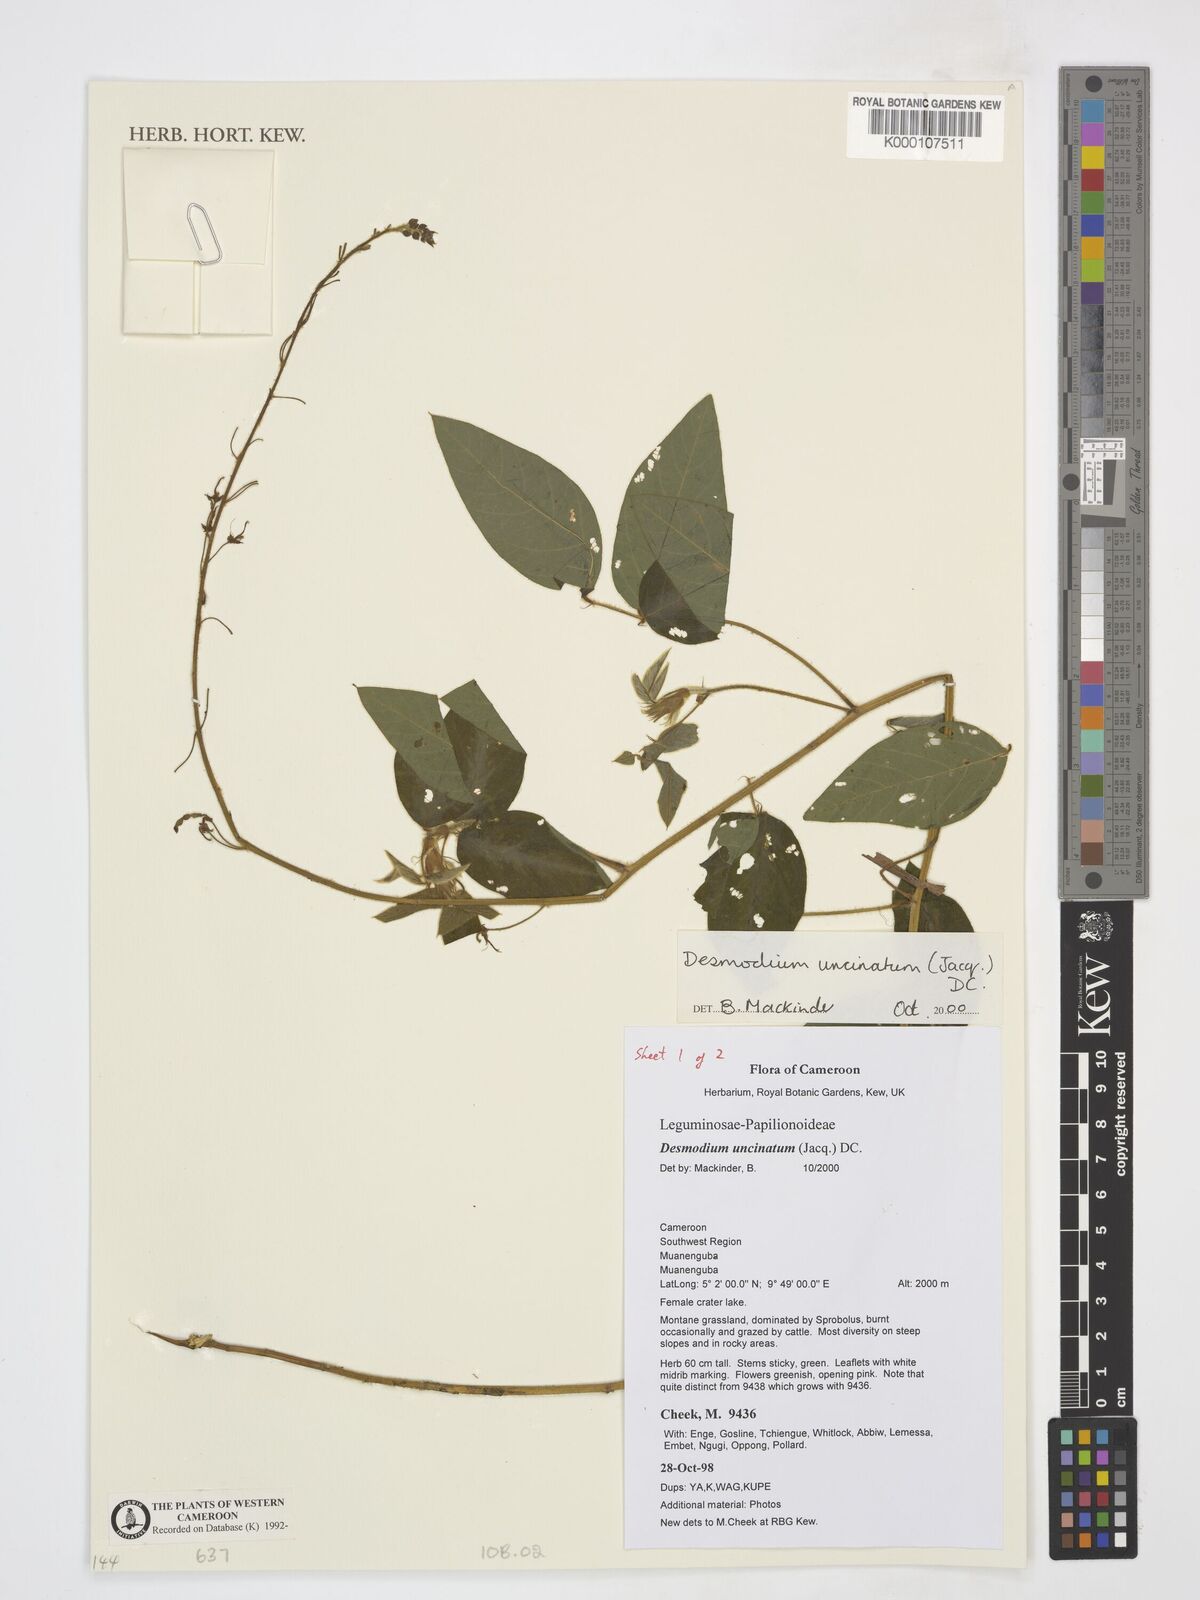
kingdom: Plantae
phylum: Tracheophyta
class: Magnoliopsida
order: Fabales
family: Fabaceae
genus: Desmodium
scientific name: Desmodium uncinatum
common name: Silverleaf desmodium
